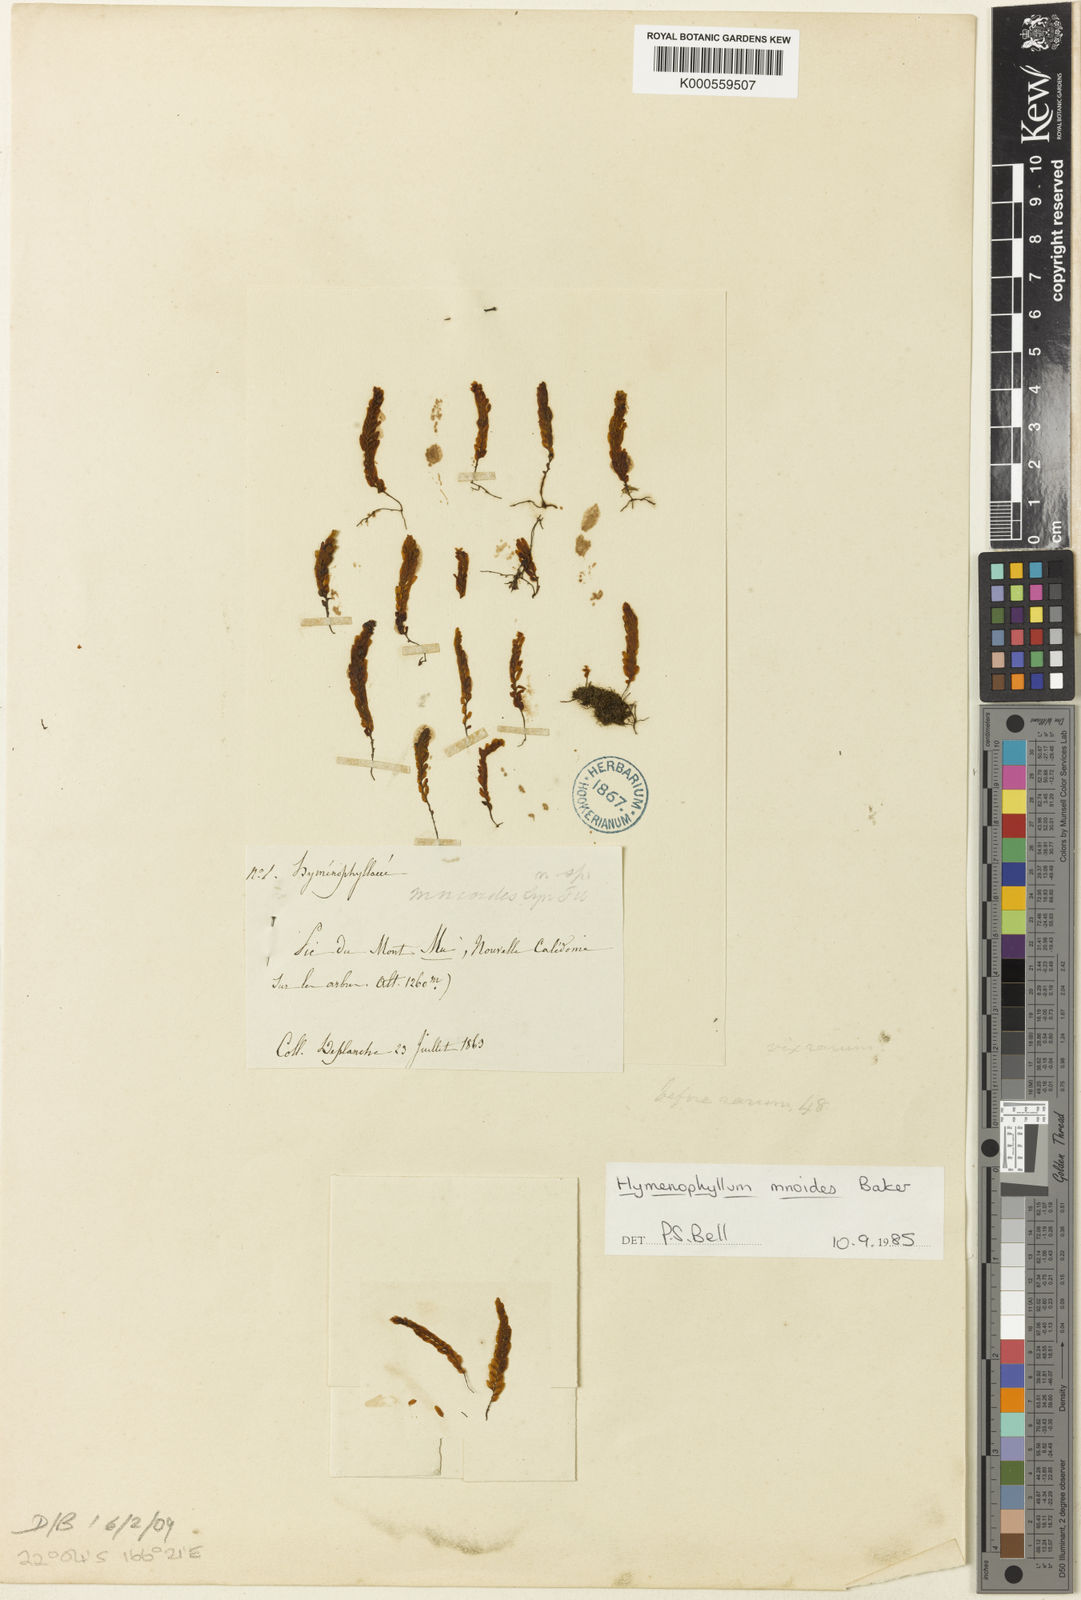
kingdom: Plantae
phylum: Tracheophyta
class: Polypodiopsida
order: Hymenophyllales
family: Hymenophyllaceae
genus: Hymenophyllum
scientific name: Hymenophyllum mnioides
